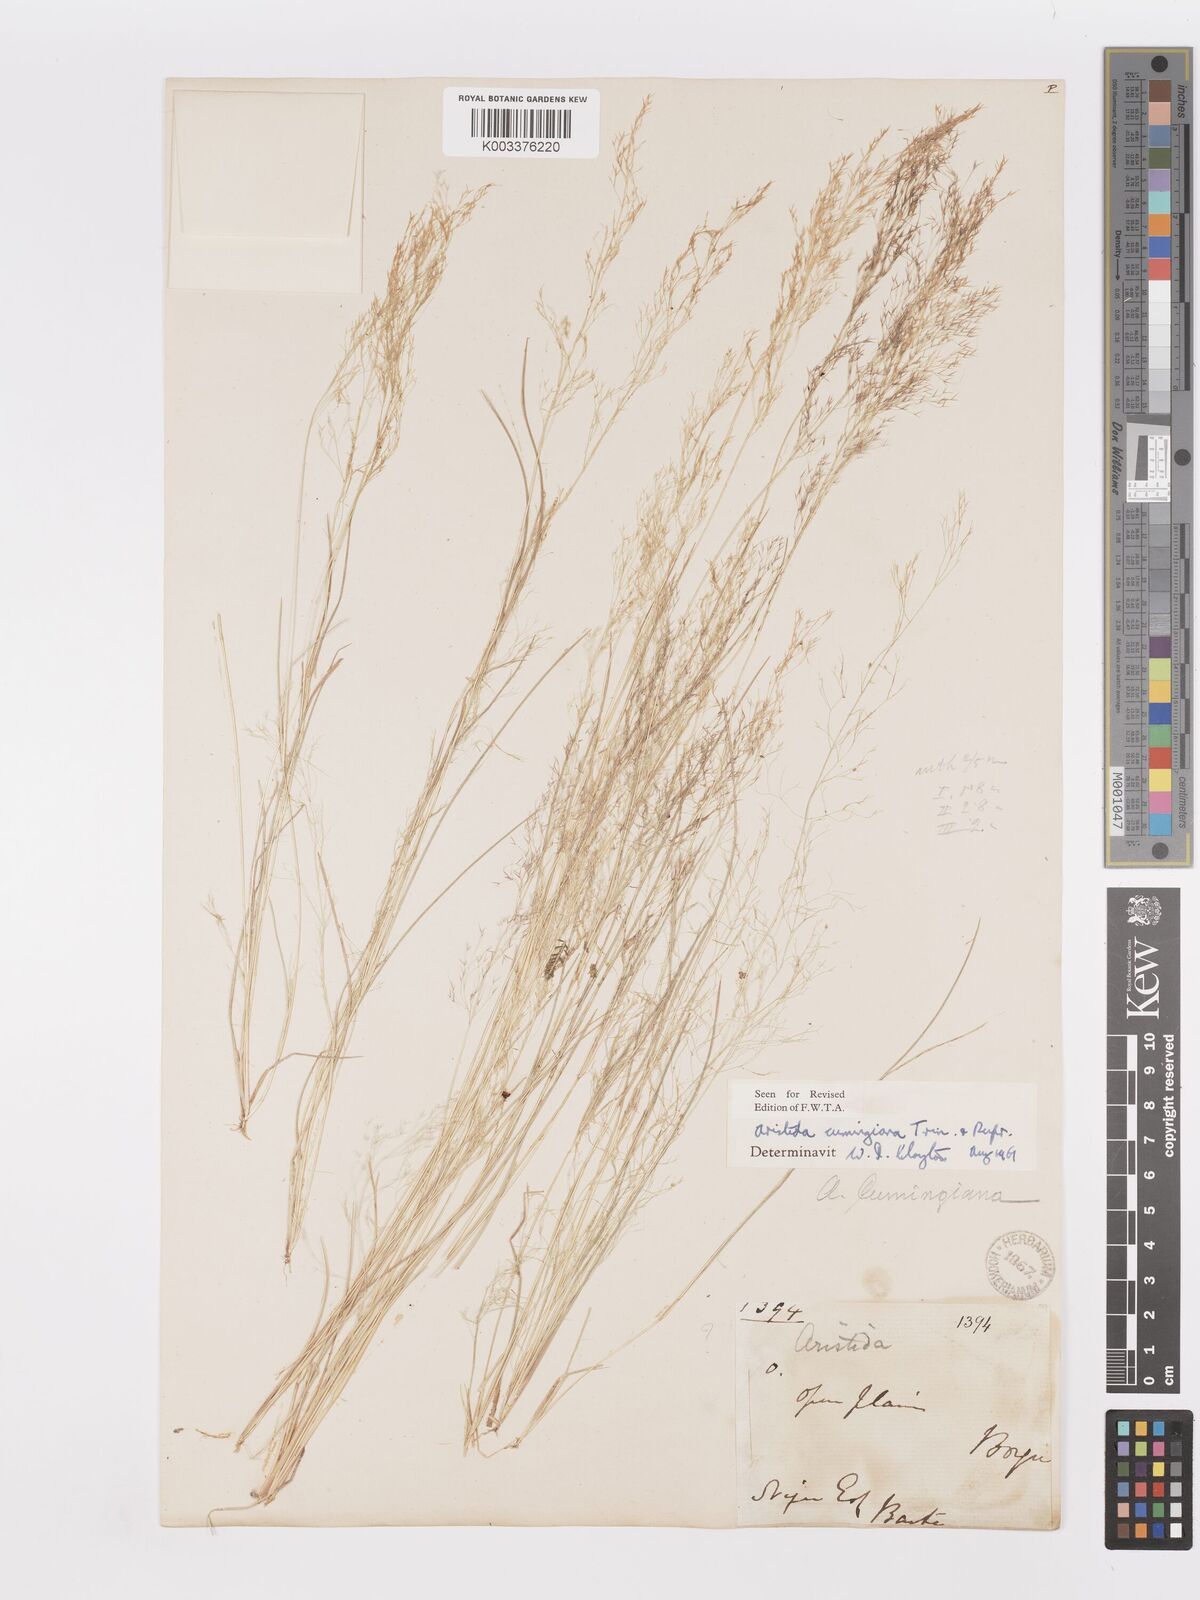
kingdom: Plantae
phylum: Tracheophyta
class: Liliopsida
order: Poales
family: Poaceae
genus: Aristida
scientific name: Aristida cumingiana
